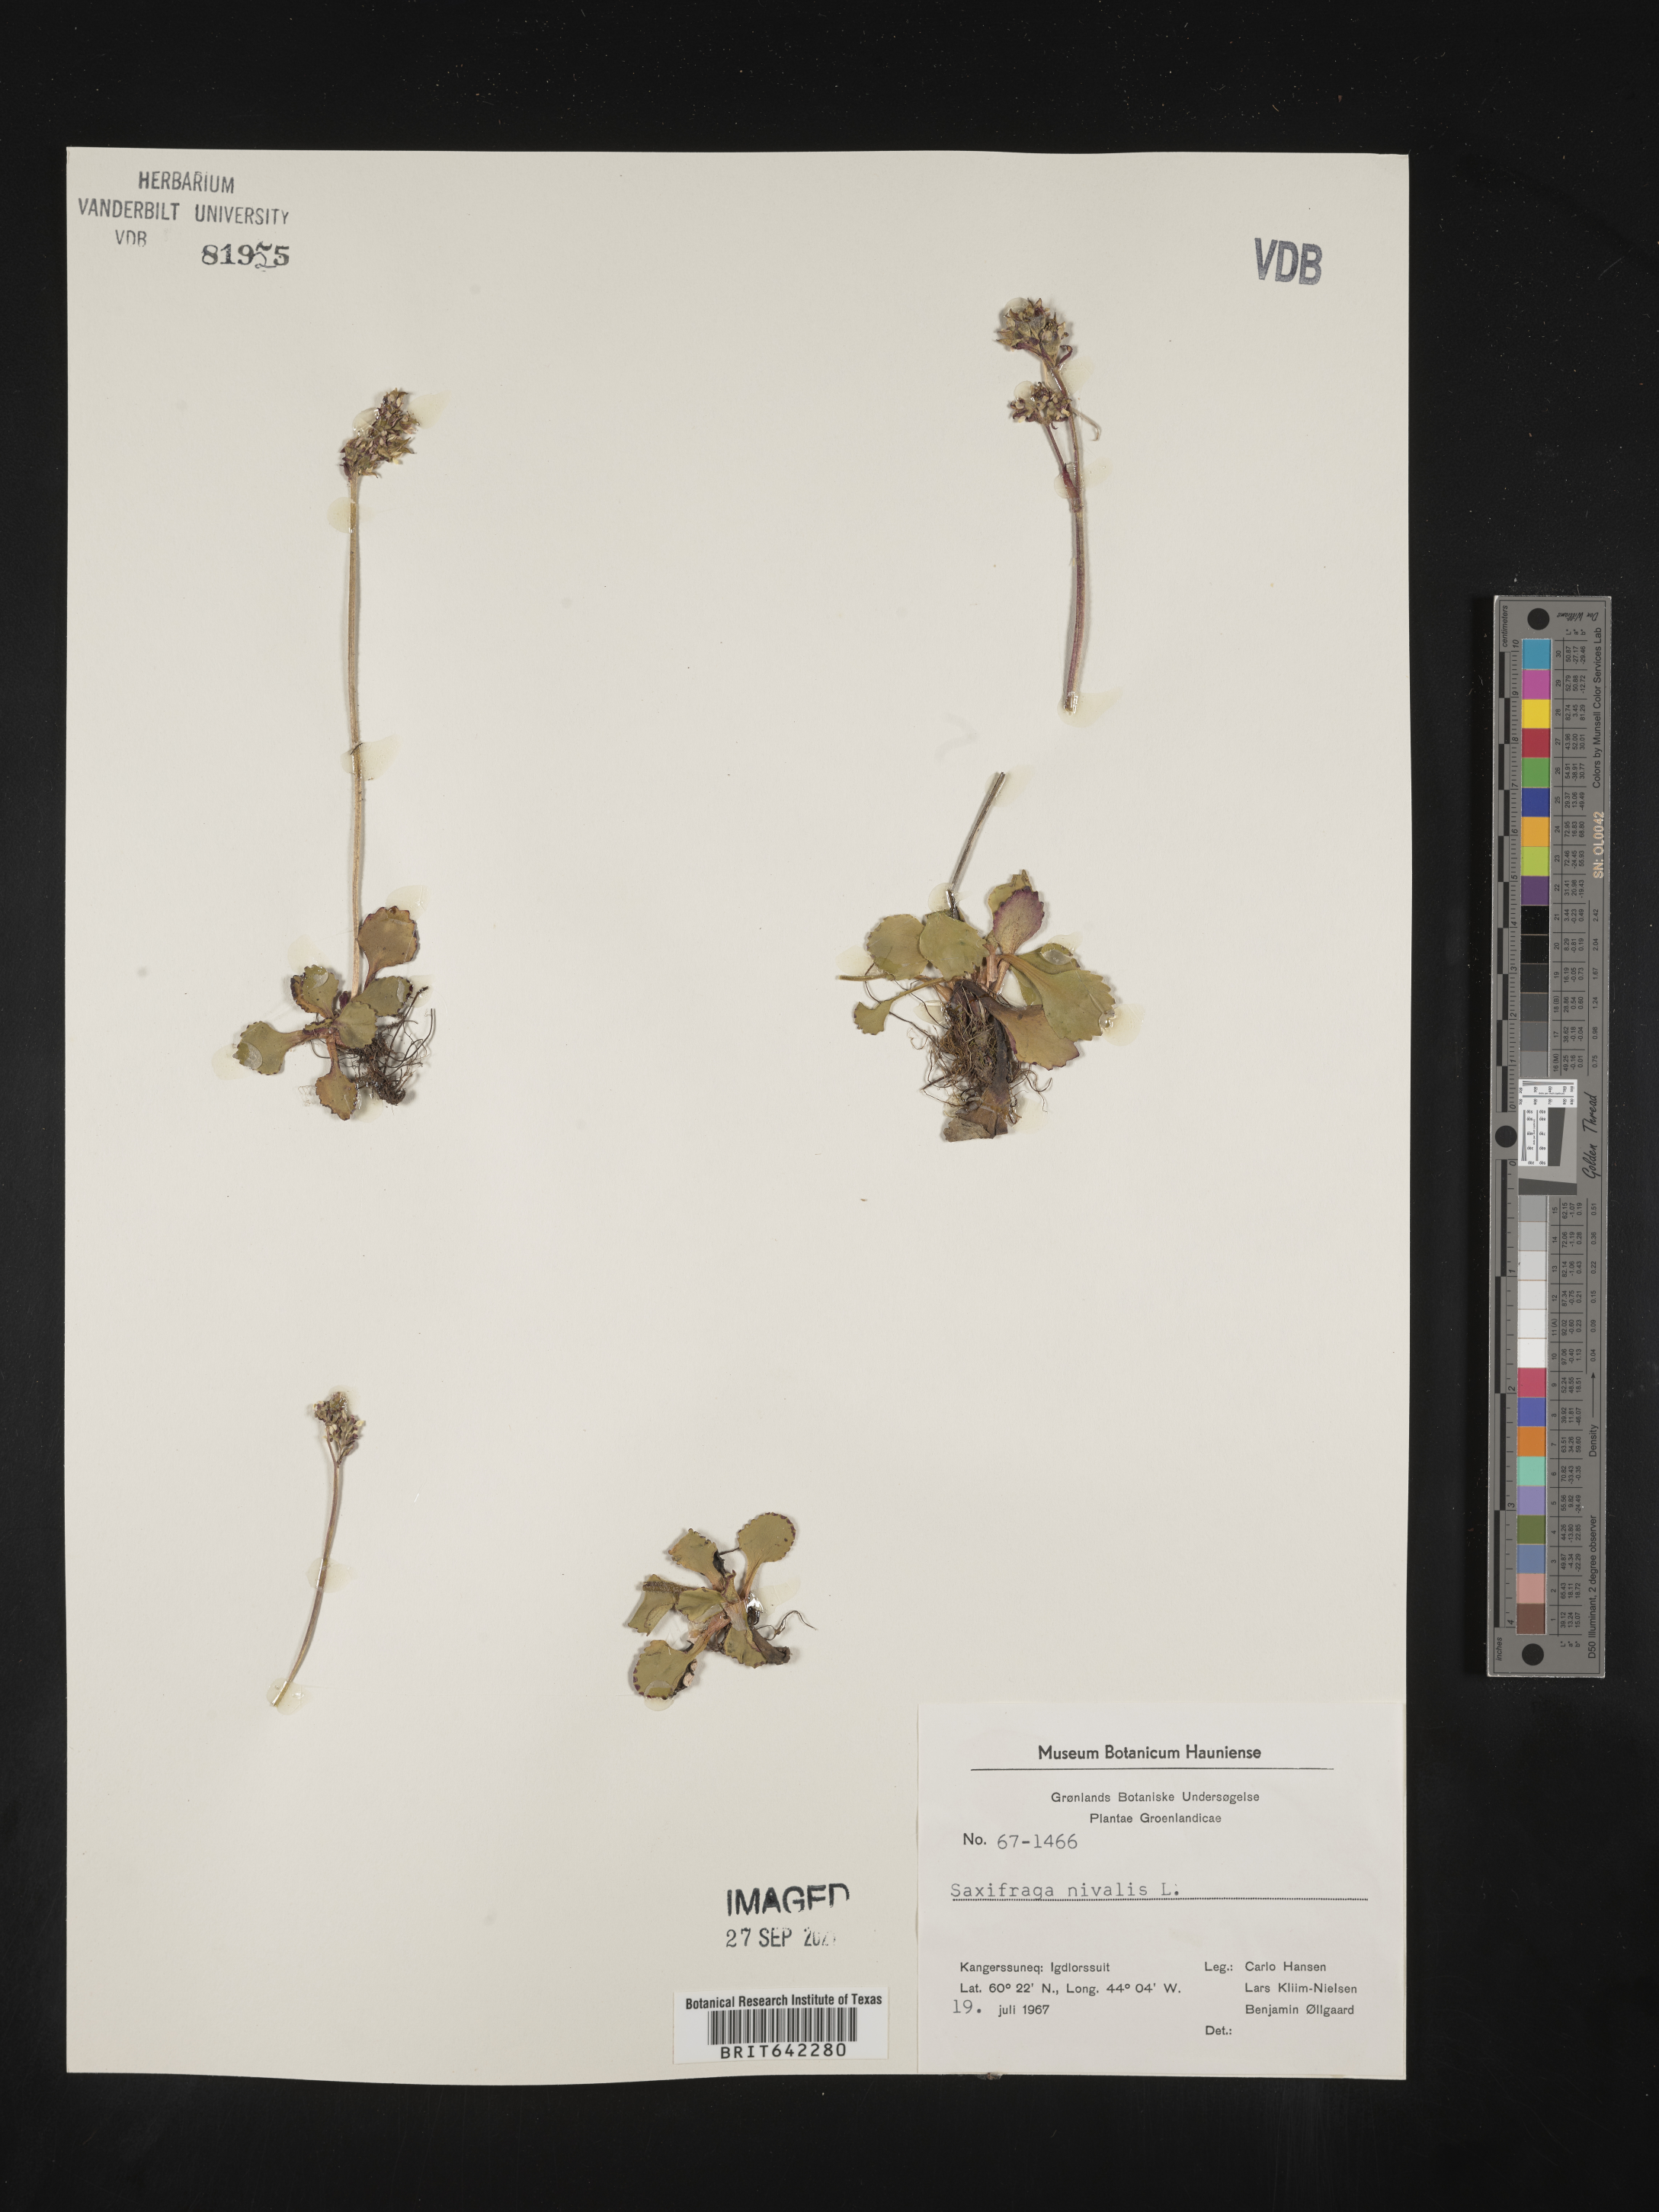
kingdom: Plantae
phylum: Tracheophyta
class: Magnoliopsida
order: Saxifragales
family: Saxifragaceae
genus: Saxifraga
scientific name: Saxifraga
